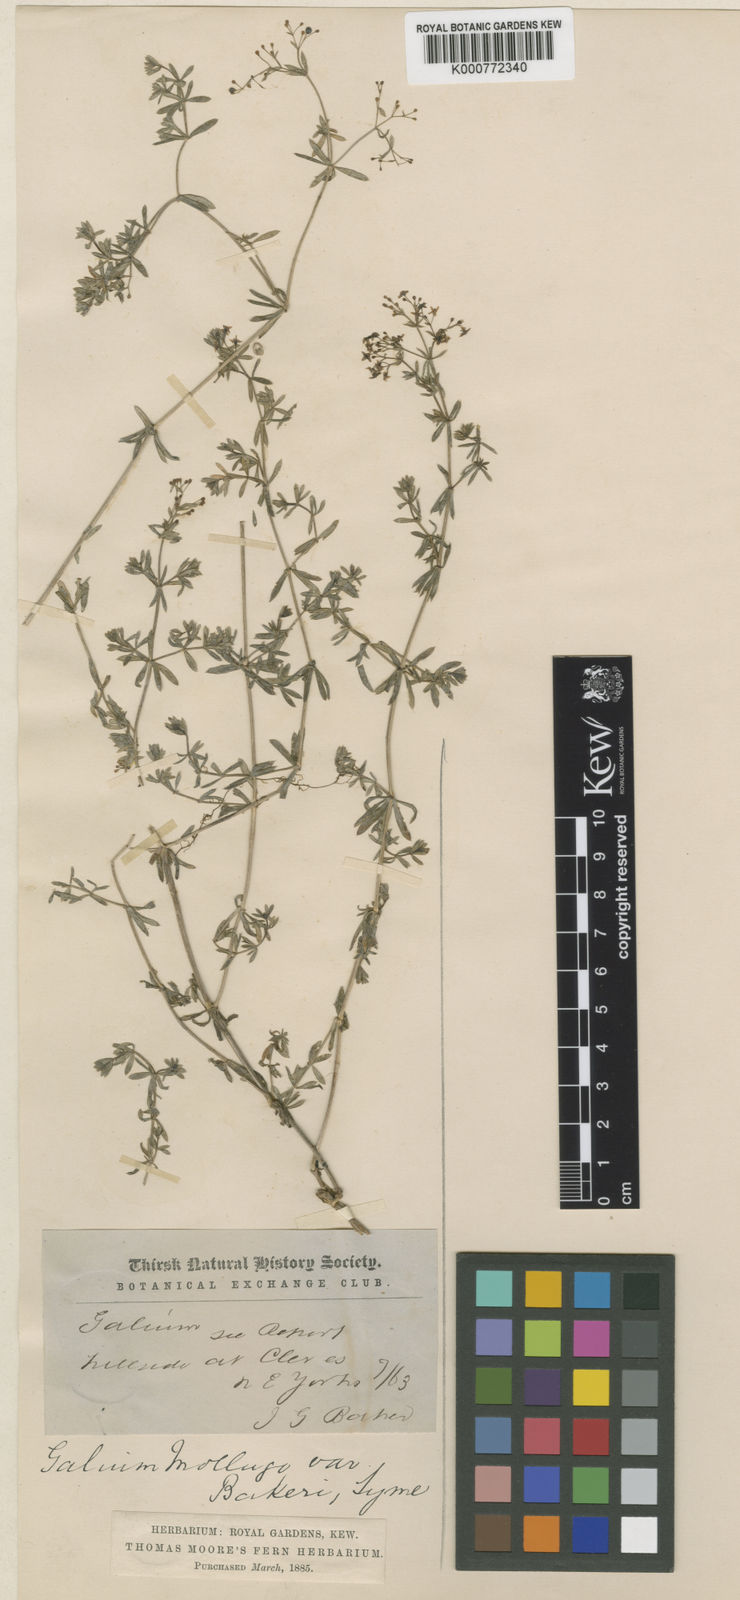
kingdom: Plantae
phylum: Tracheophyta
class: Magnoliopsida
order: Gentianales
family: Rubiaceae
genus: Galium
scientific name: Galium mollugo
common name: Hedge bedstraw
